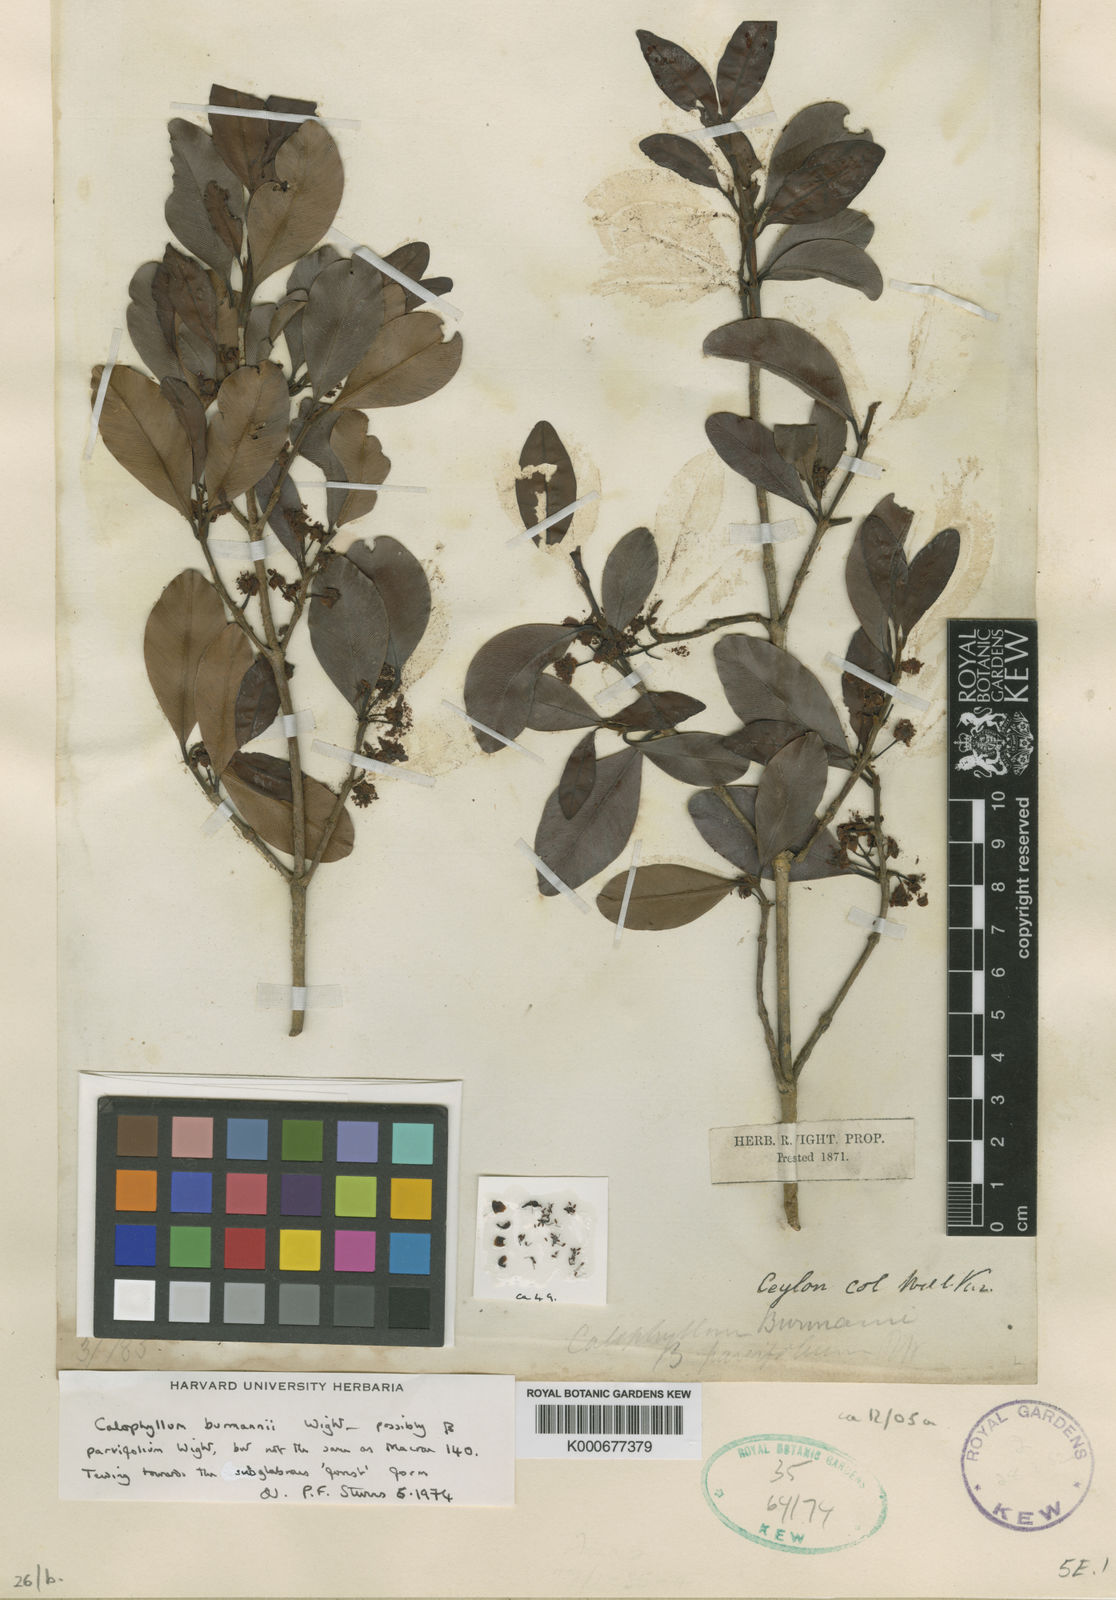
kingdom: Plantae
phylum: Tracheophyta
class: Magnoliopsida
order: Malpighiales
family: Calophyllaceae
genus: Calophyllum
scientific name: Calophyllum calaba
